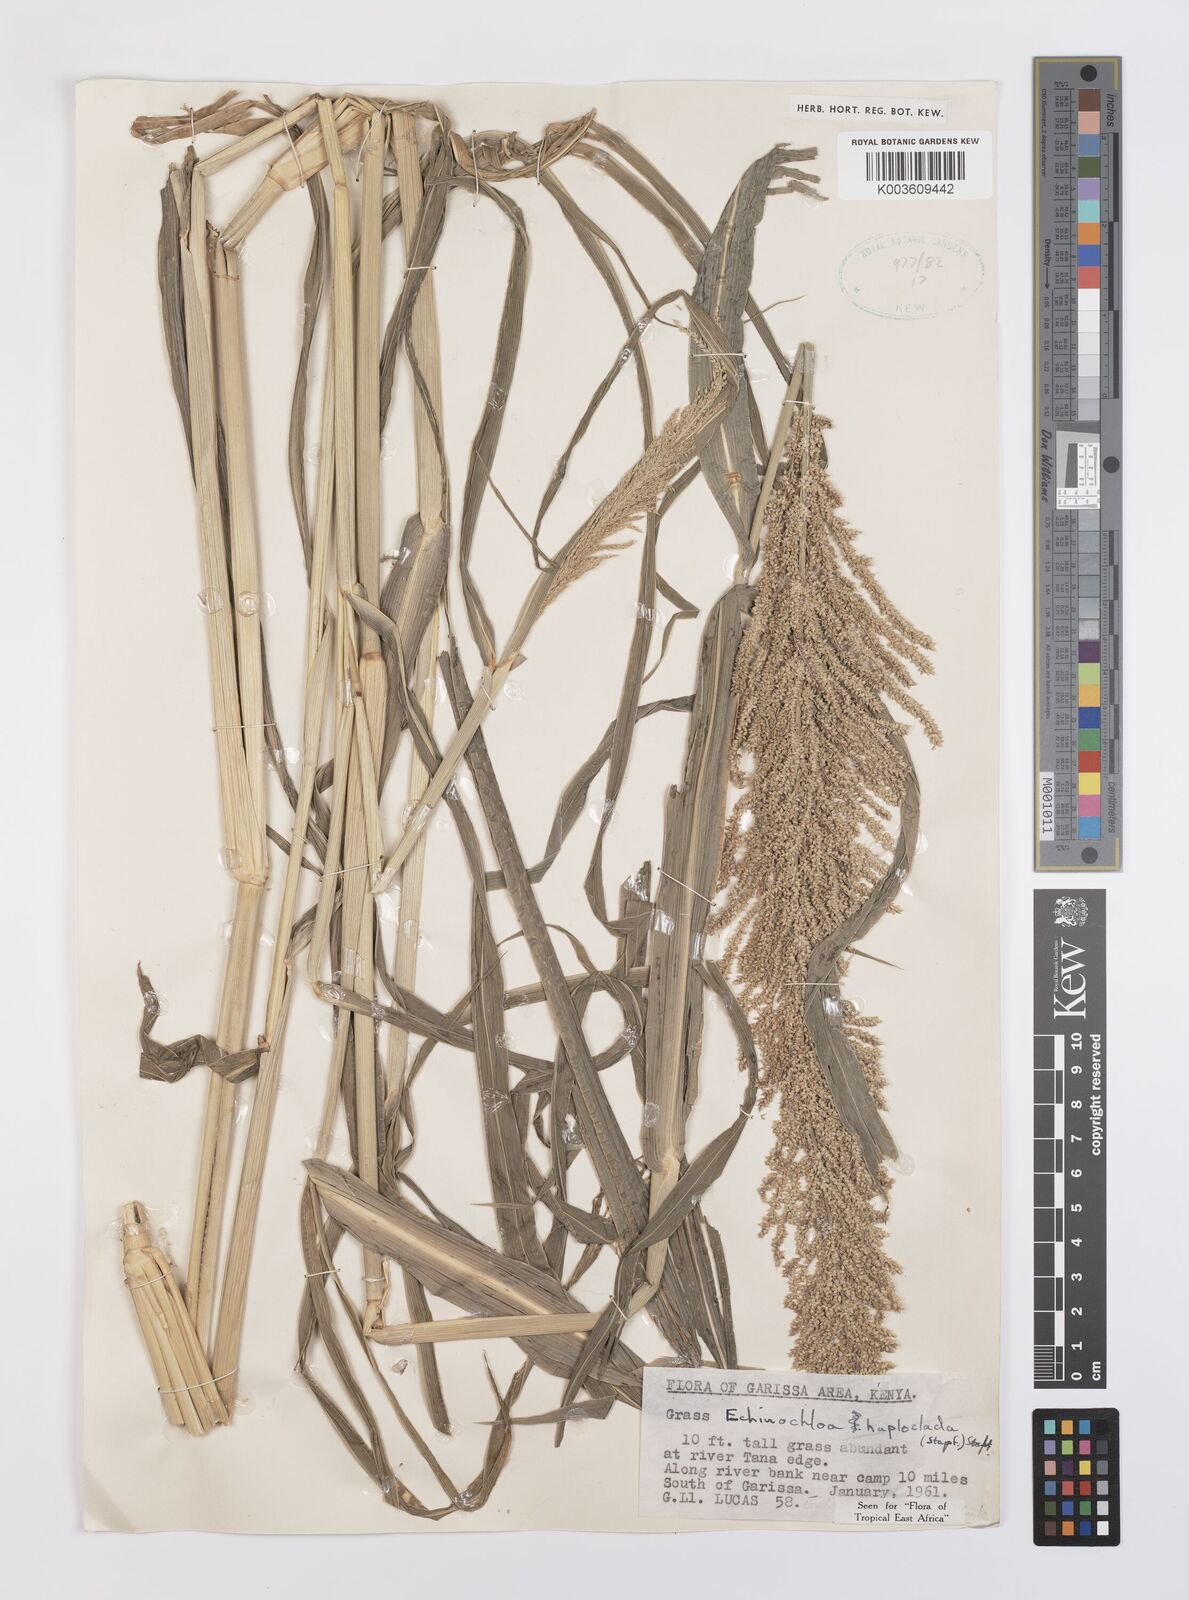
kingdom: Plantae
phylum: Tracheophyta
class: Liliopsida
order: Poales
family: Poaceae
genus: Echinochloa
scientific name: Echinochloa haploclada
